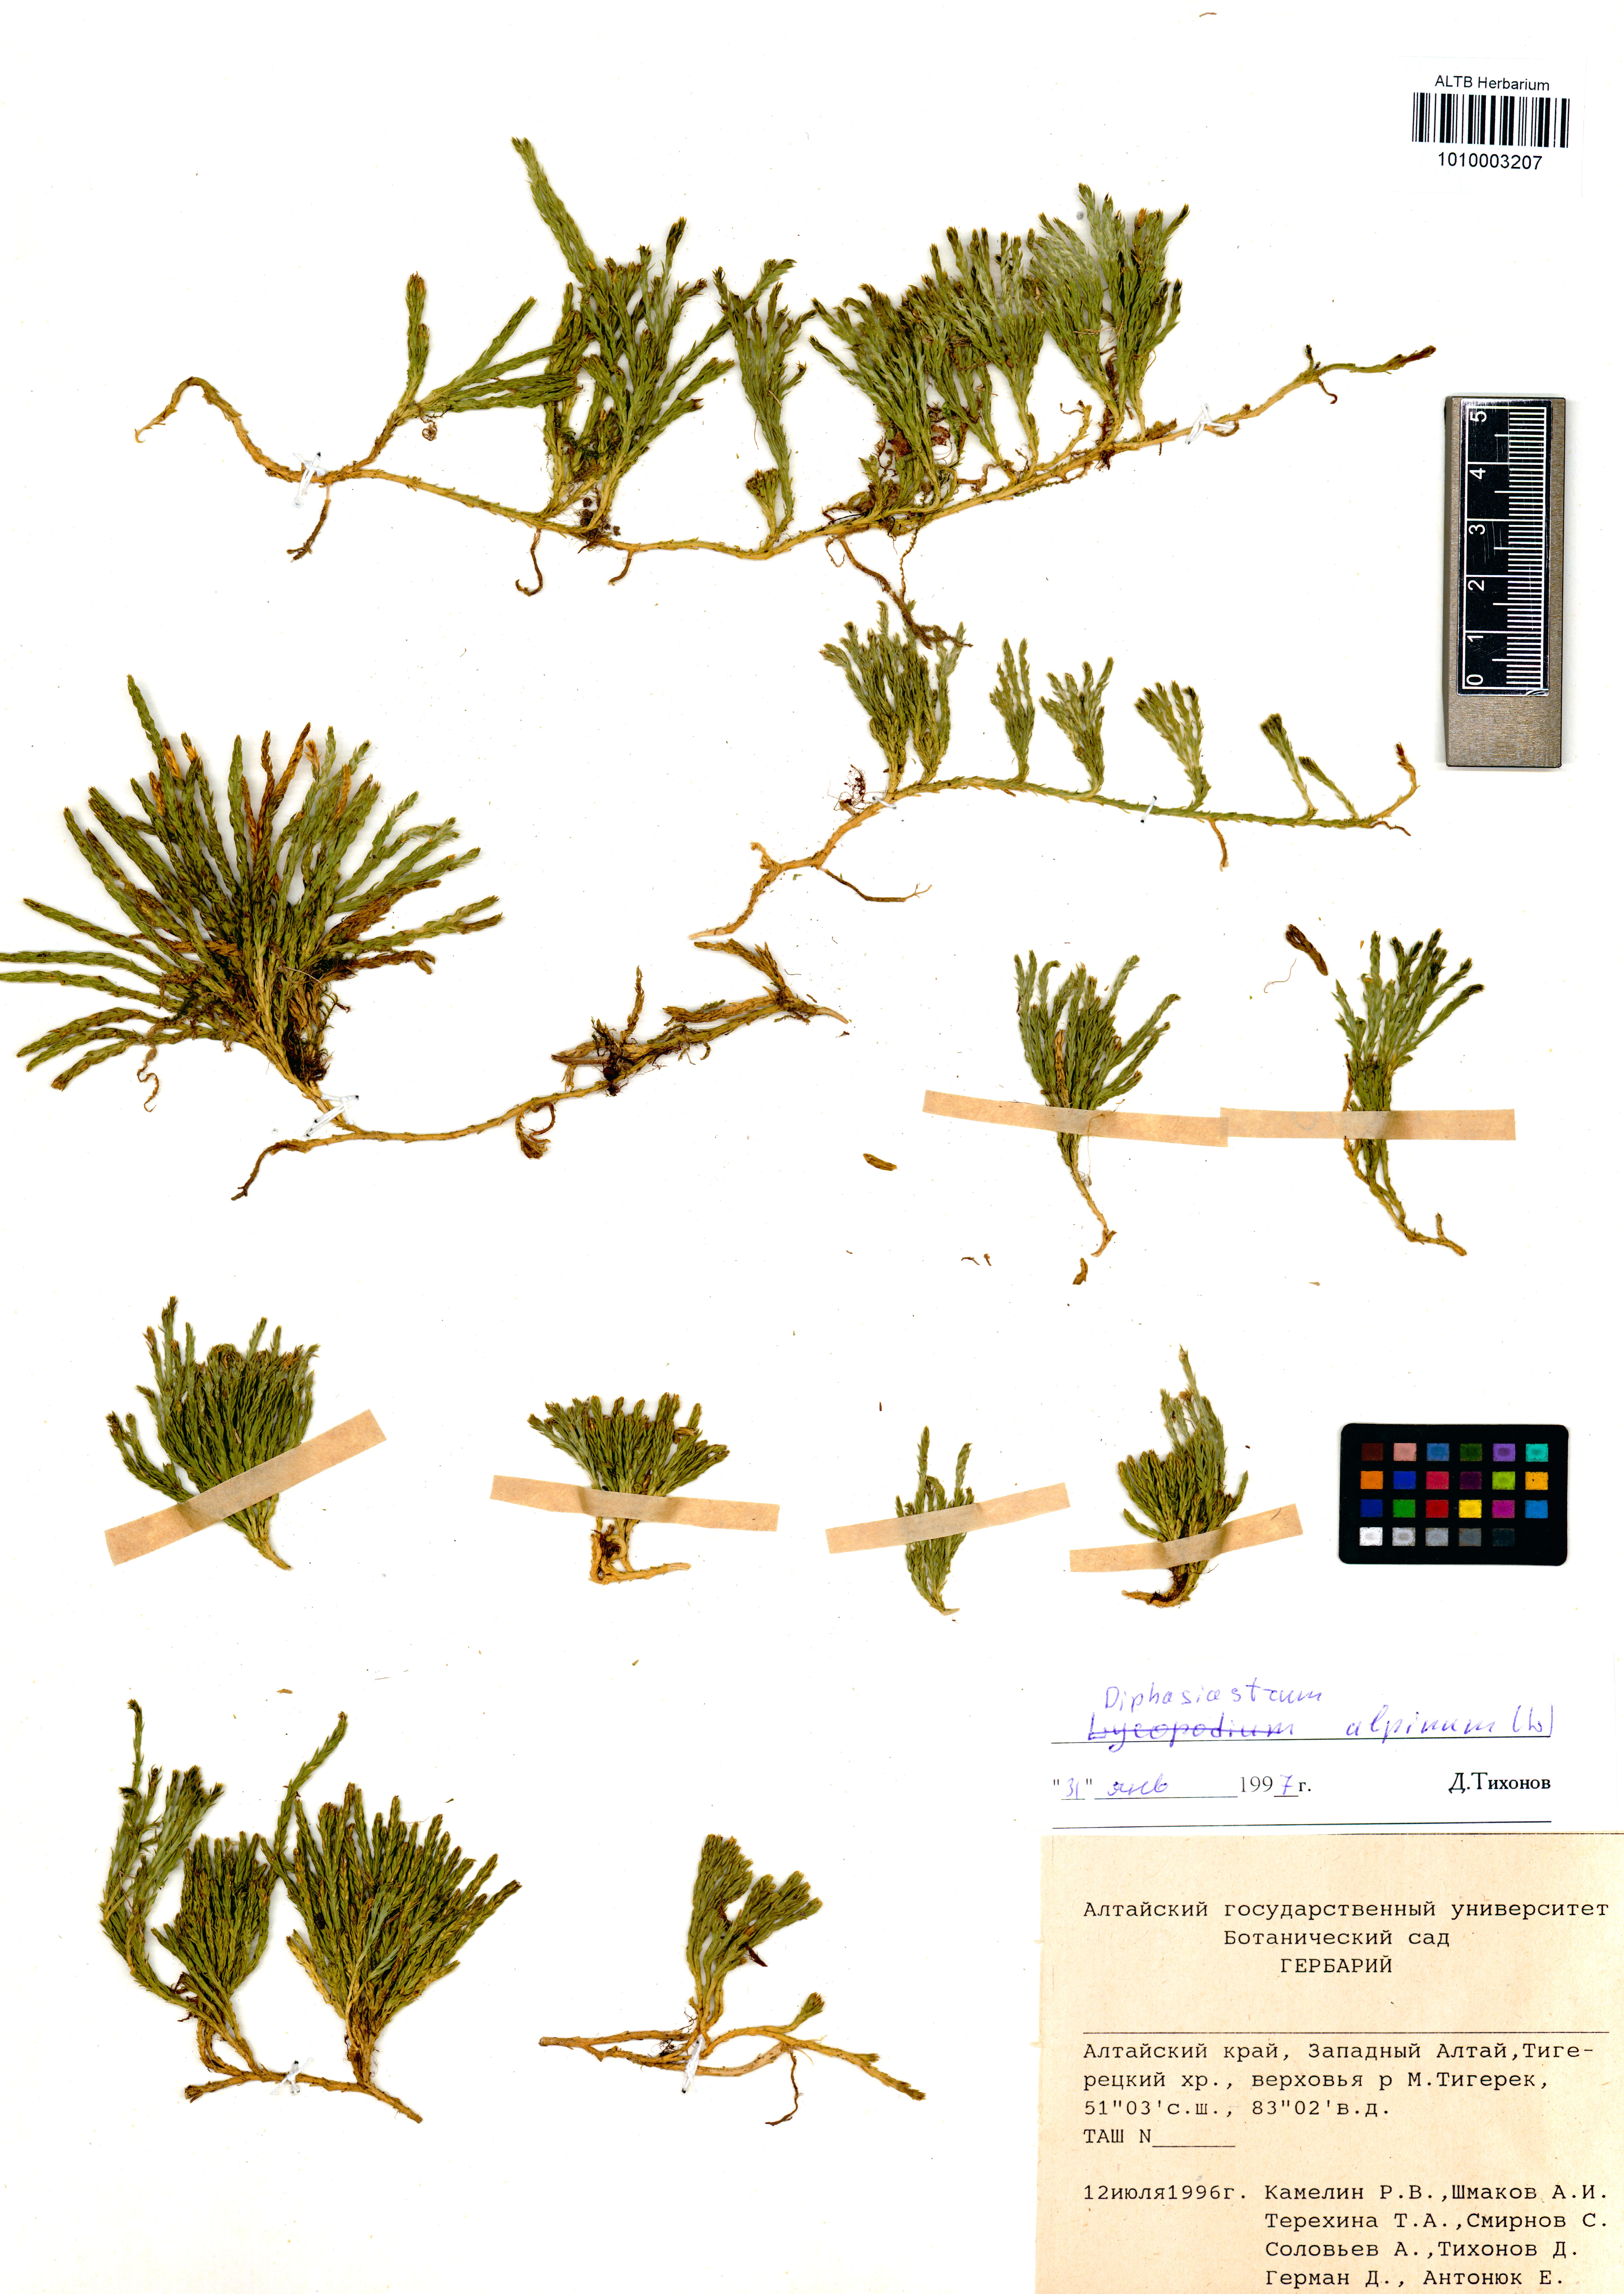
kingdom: Plantae
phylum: Tracheophyta
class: Lycopodiopsida
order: Lycopodiales
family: Lycopodiaceae
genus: Diphasiastrum
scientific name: Diphasiastrum alpinum
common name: Alpine clubmoss
